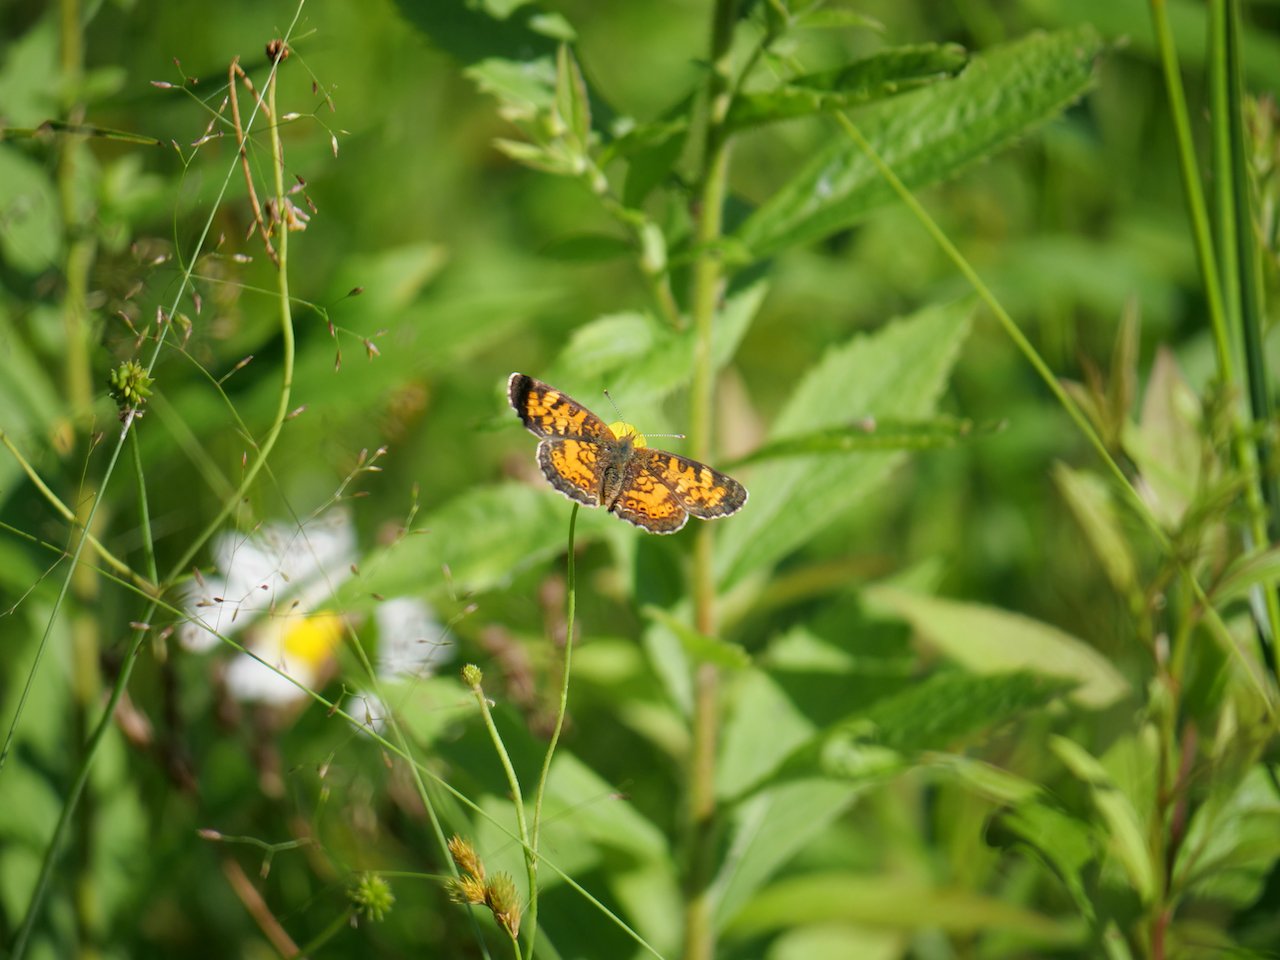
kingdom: Animalia
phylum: Arthropoda
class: Insecta
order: Lepidoptera
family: Nymphalidae
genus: Phyciodes
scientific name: Phyciodes tharos
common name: Northern Crescent
